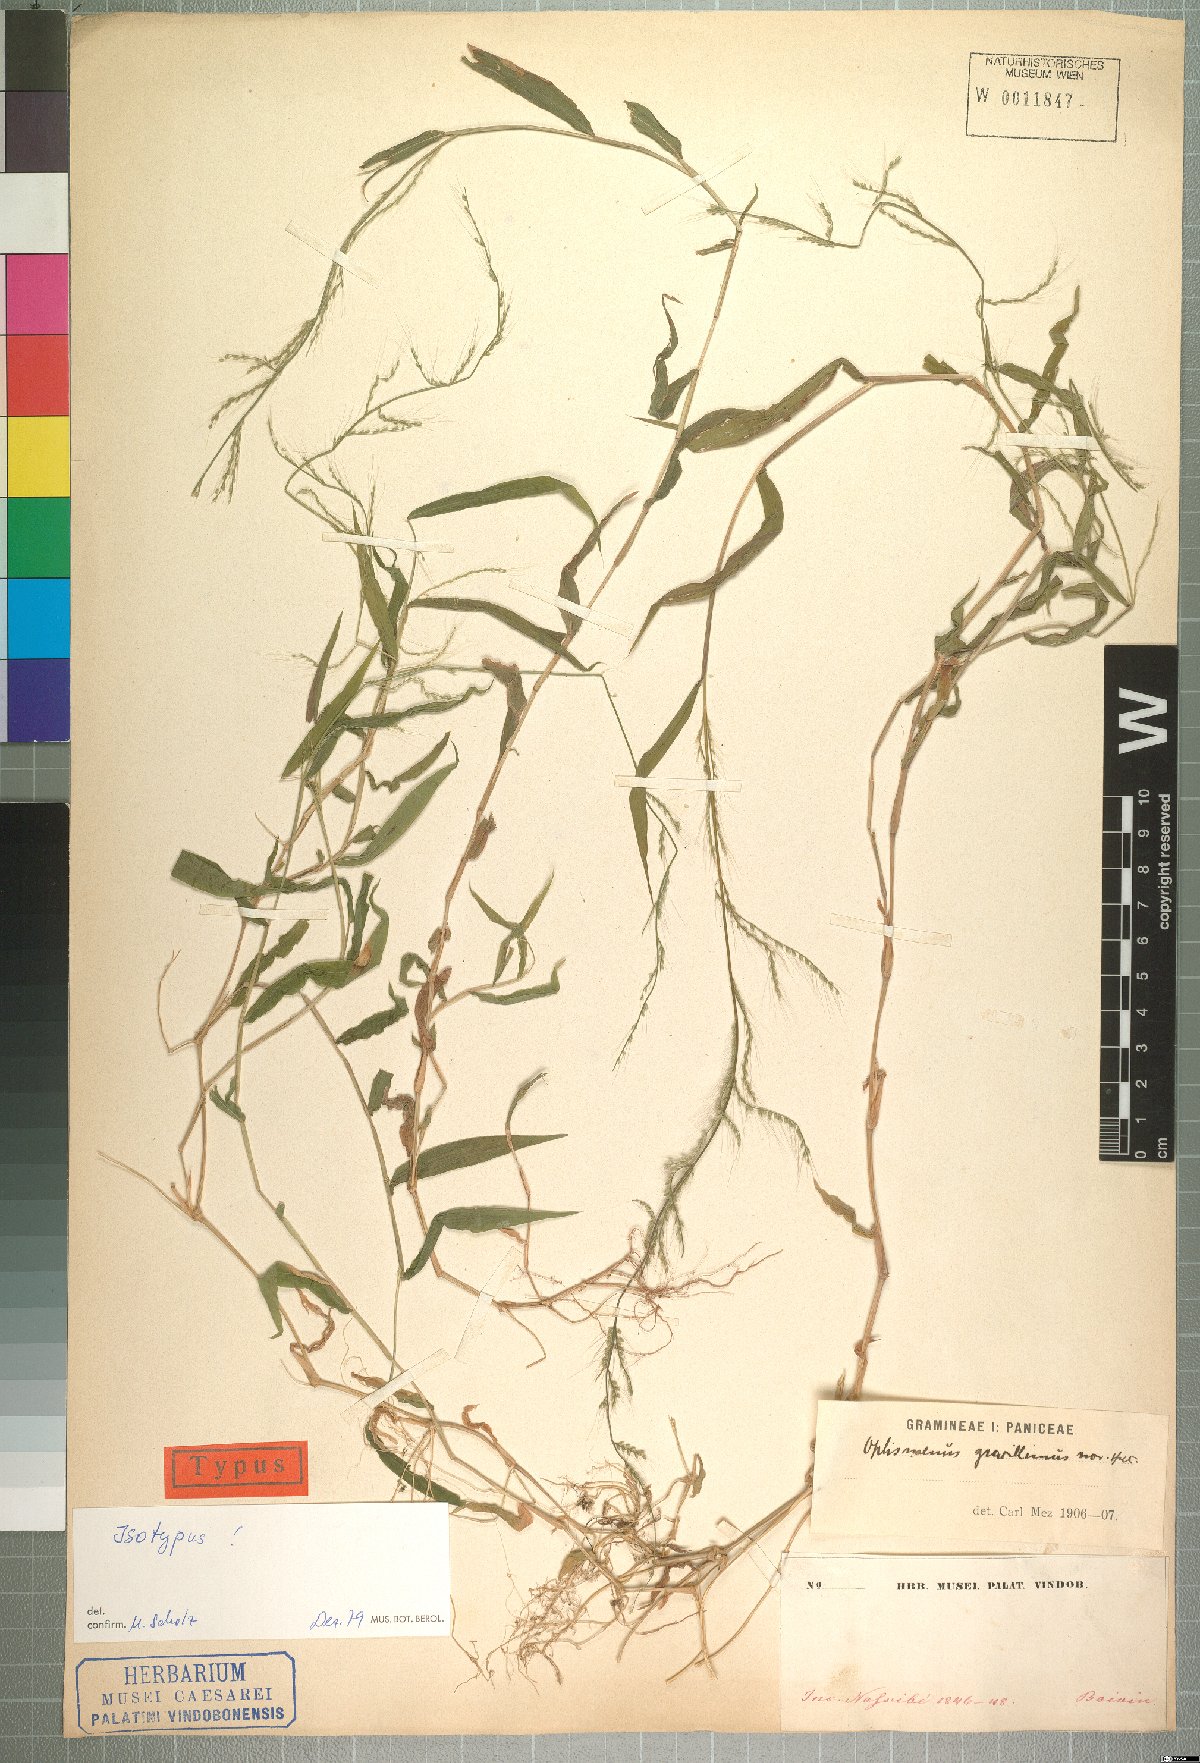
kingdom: Plantae
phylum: Tracheophyta
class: Liliopsida
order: Poales
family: Poaceae
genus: Oplismenus
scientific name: Oplismenus burmanni
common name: Burmann's basketgrass
